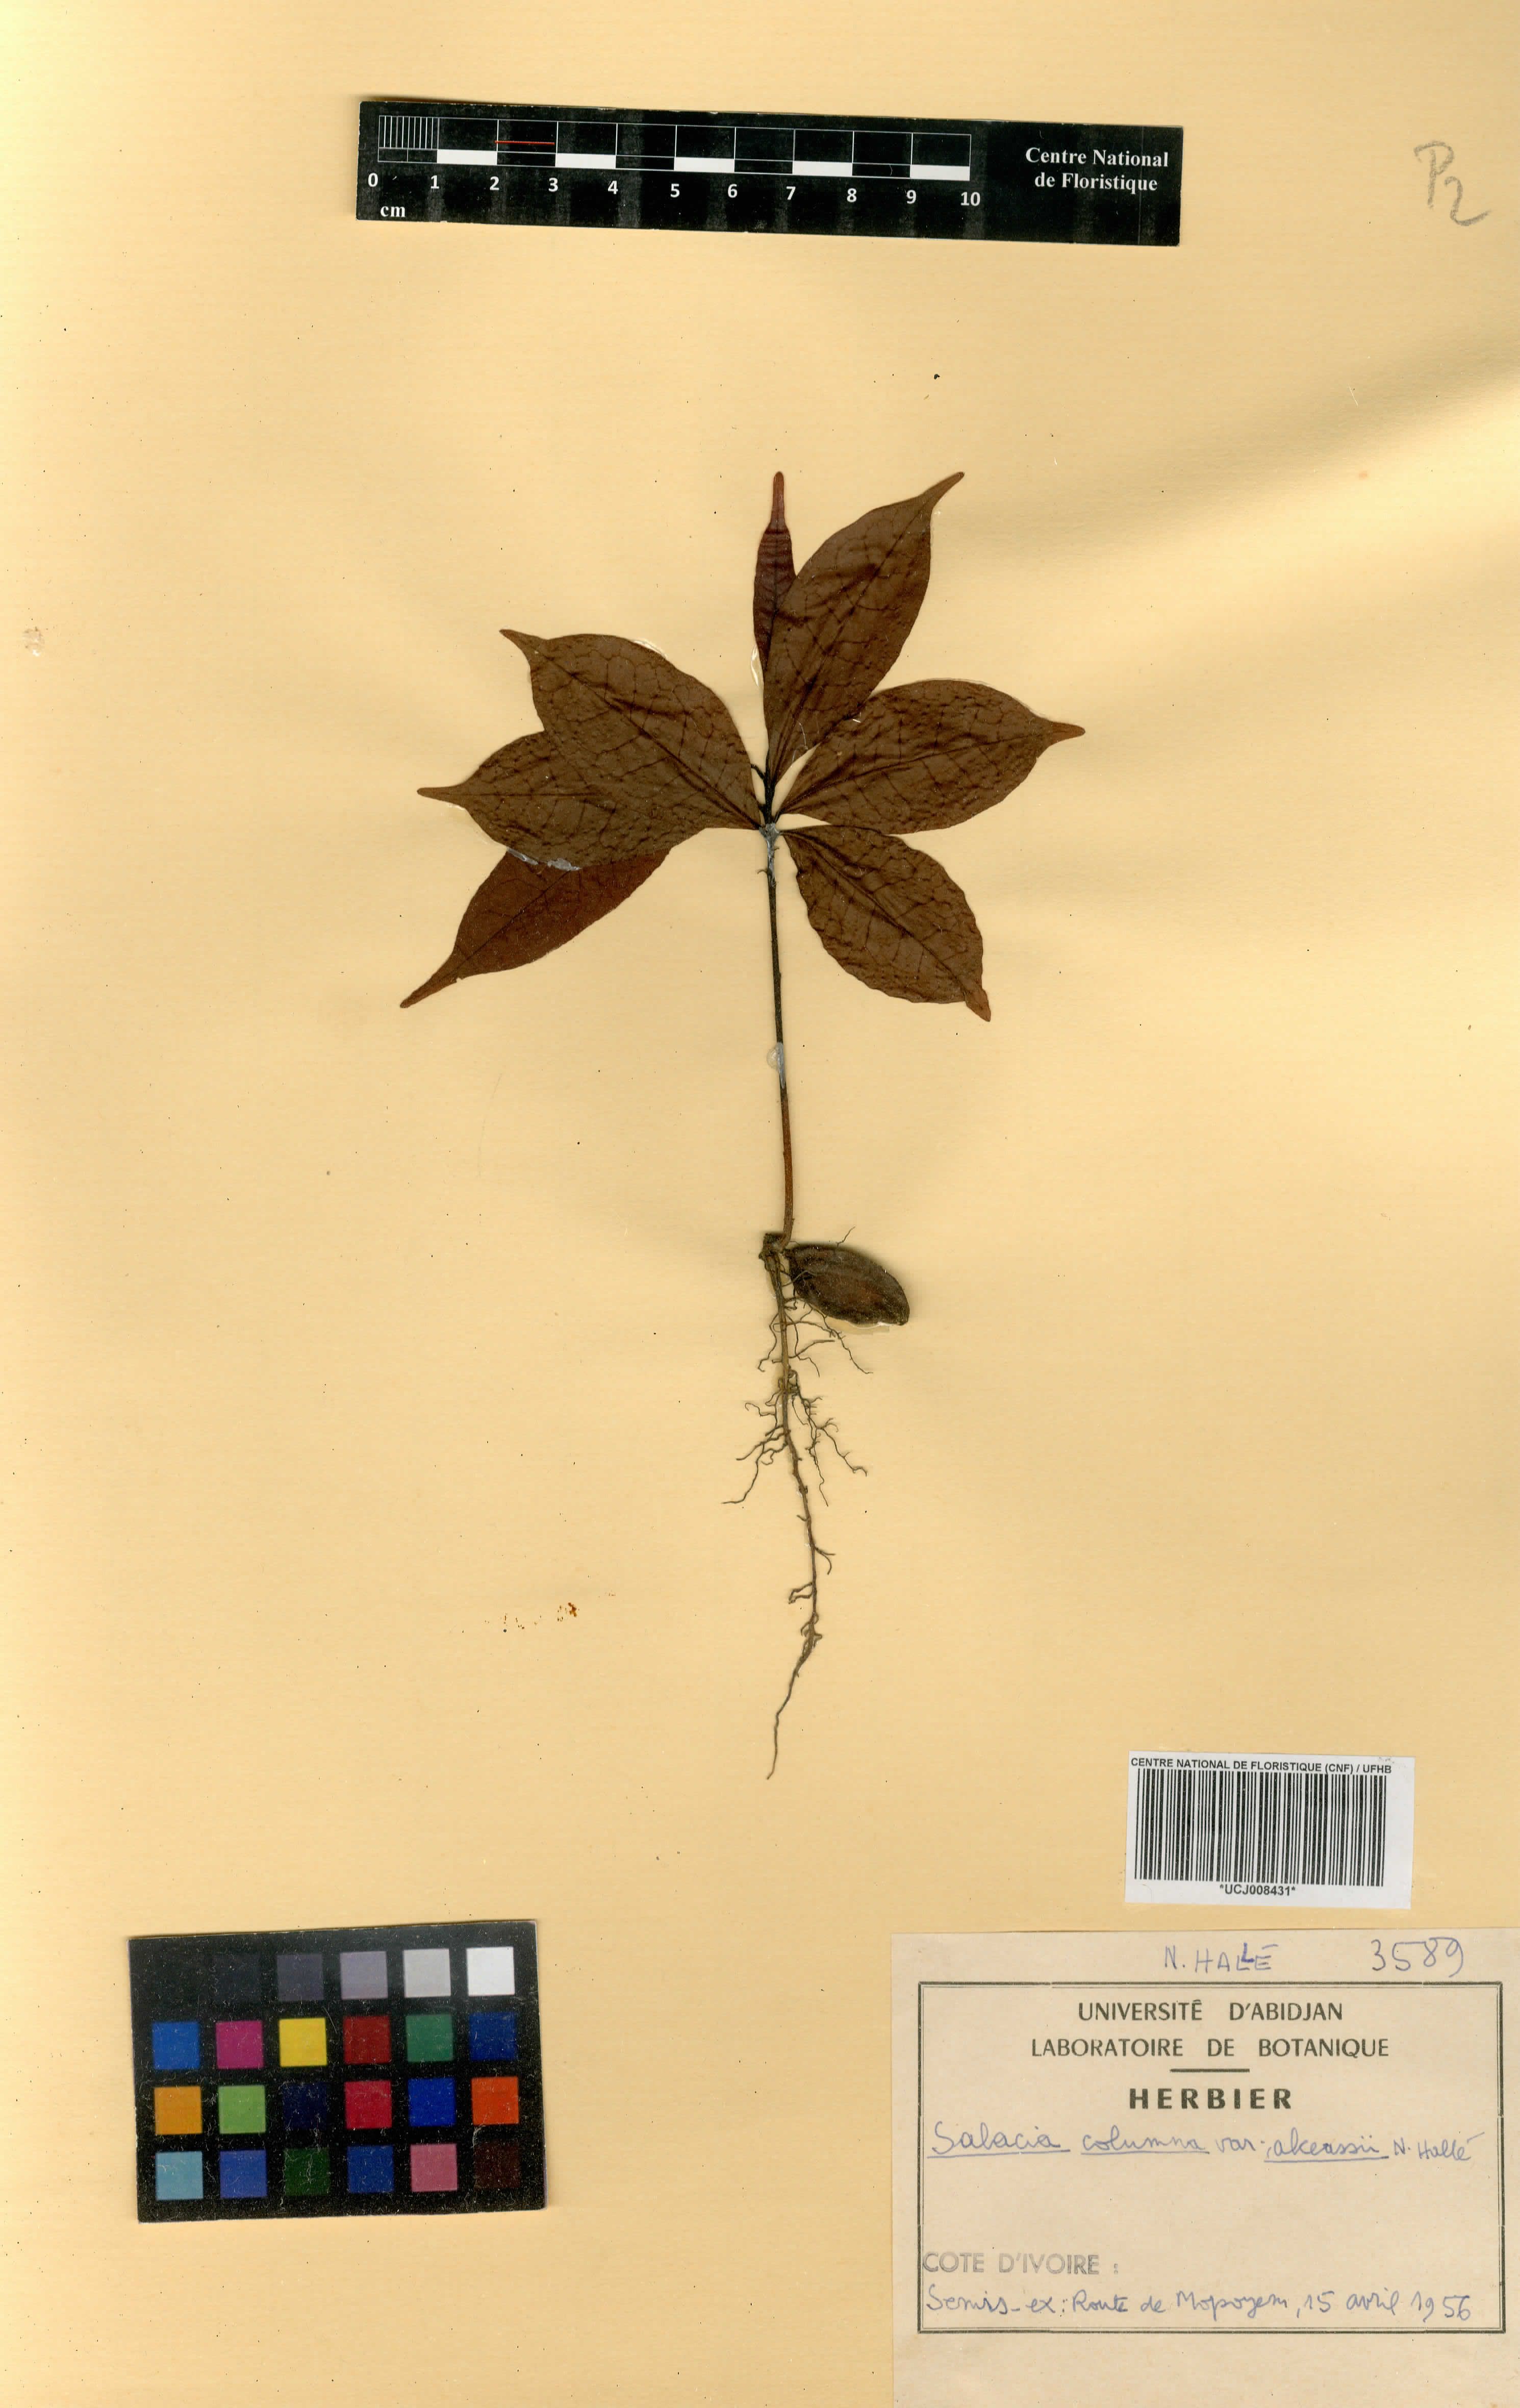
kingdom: Plantae
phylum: Tracheophyta
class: Magnoliopsida
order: Celastrales
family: Celastraceae
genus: Salacia
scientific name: Salacia columna
